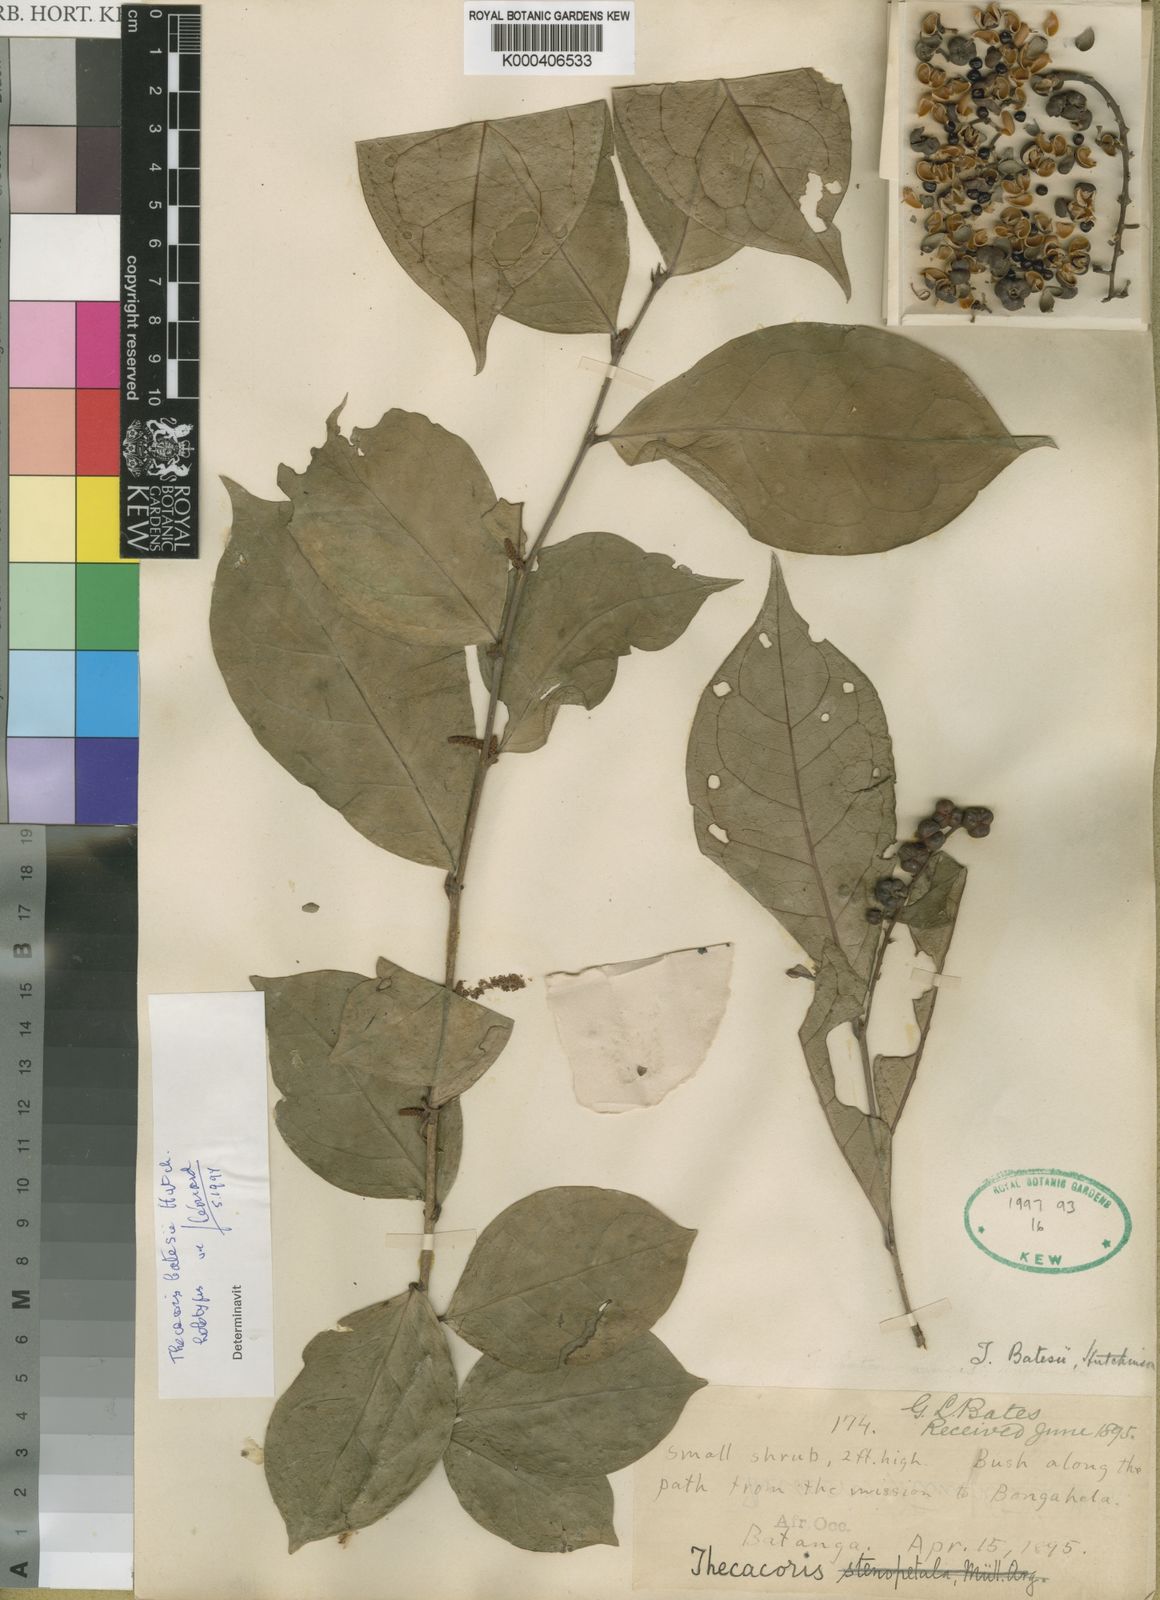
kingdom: Plantae
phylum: Tracheophyta
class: Magnoliopsida
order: Malpighiales
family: Phyllanthaceae
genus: Thecacoris
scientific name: Thecacoris stenopetala
